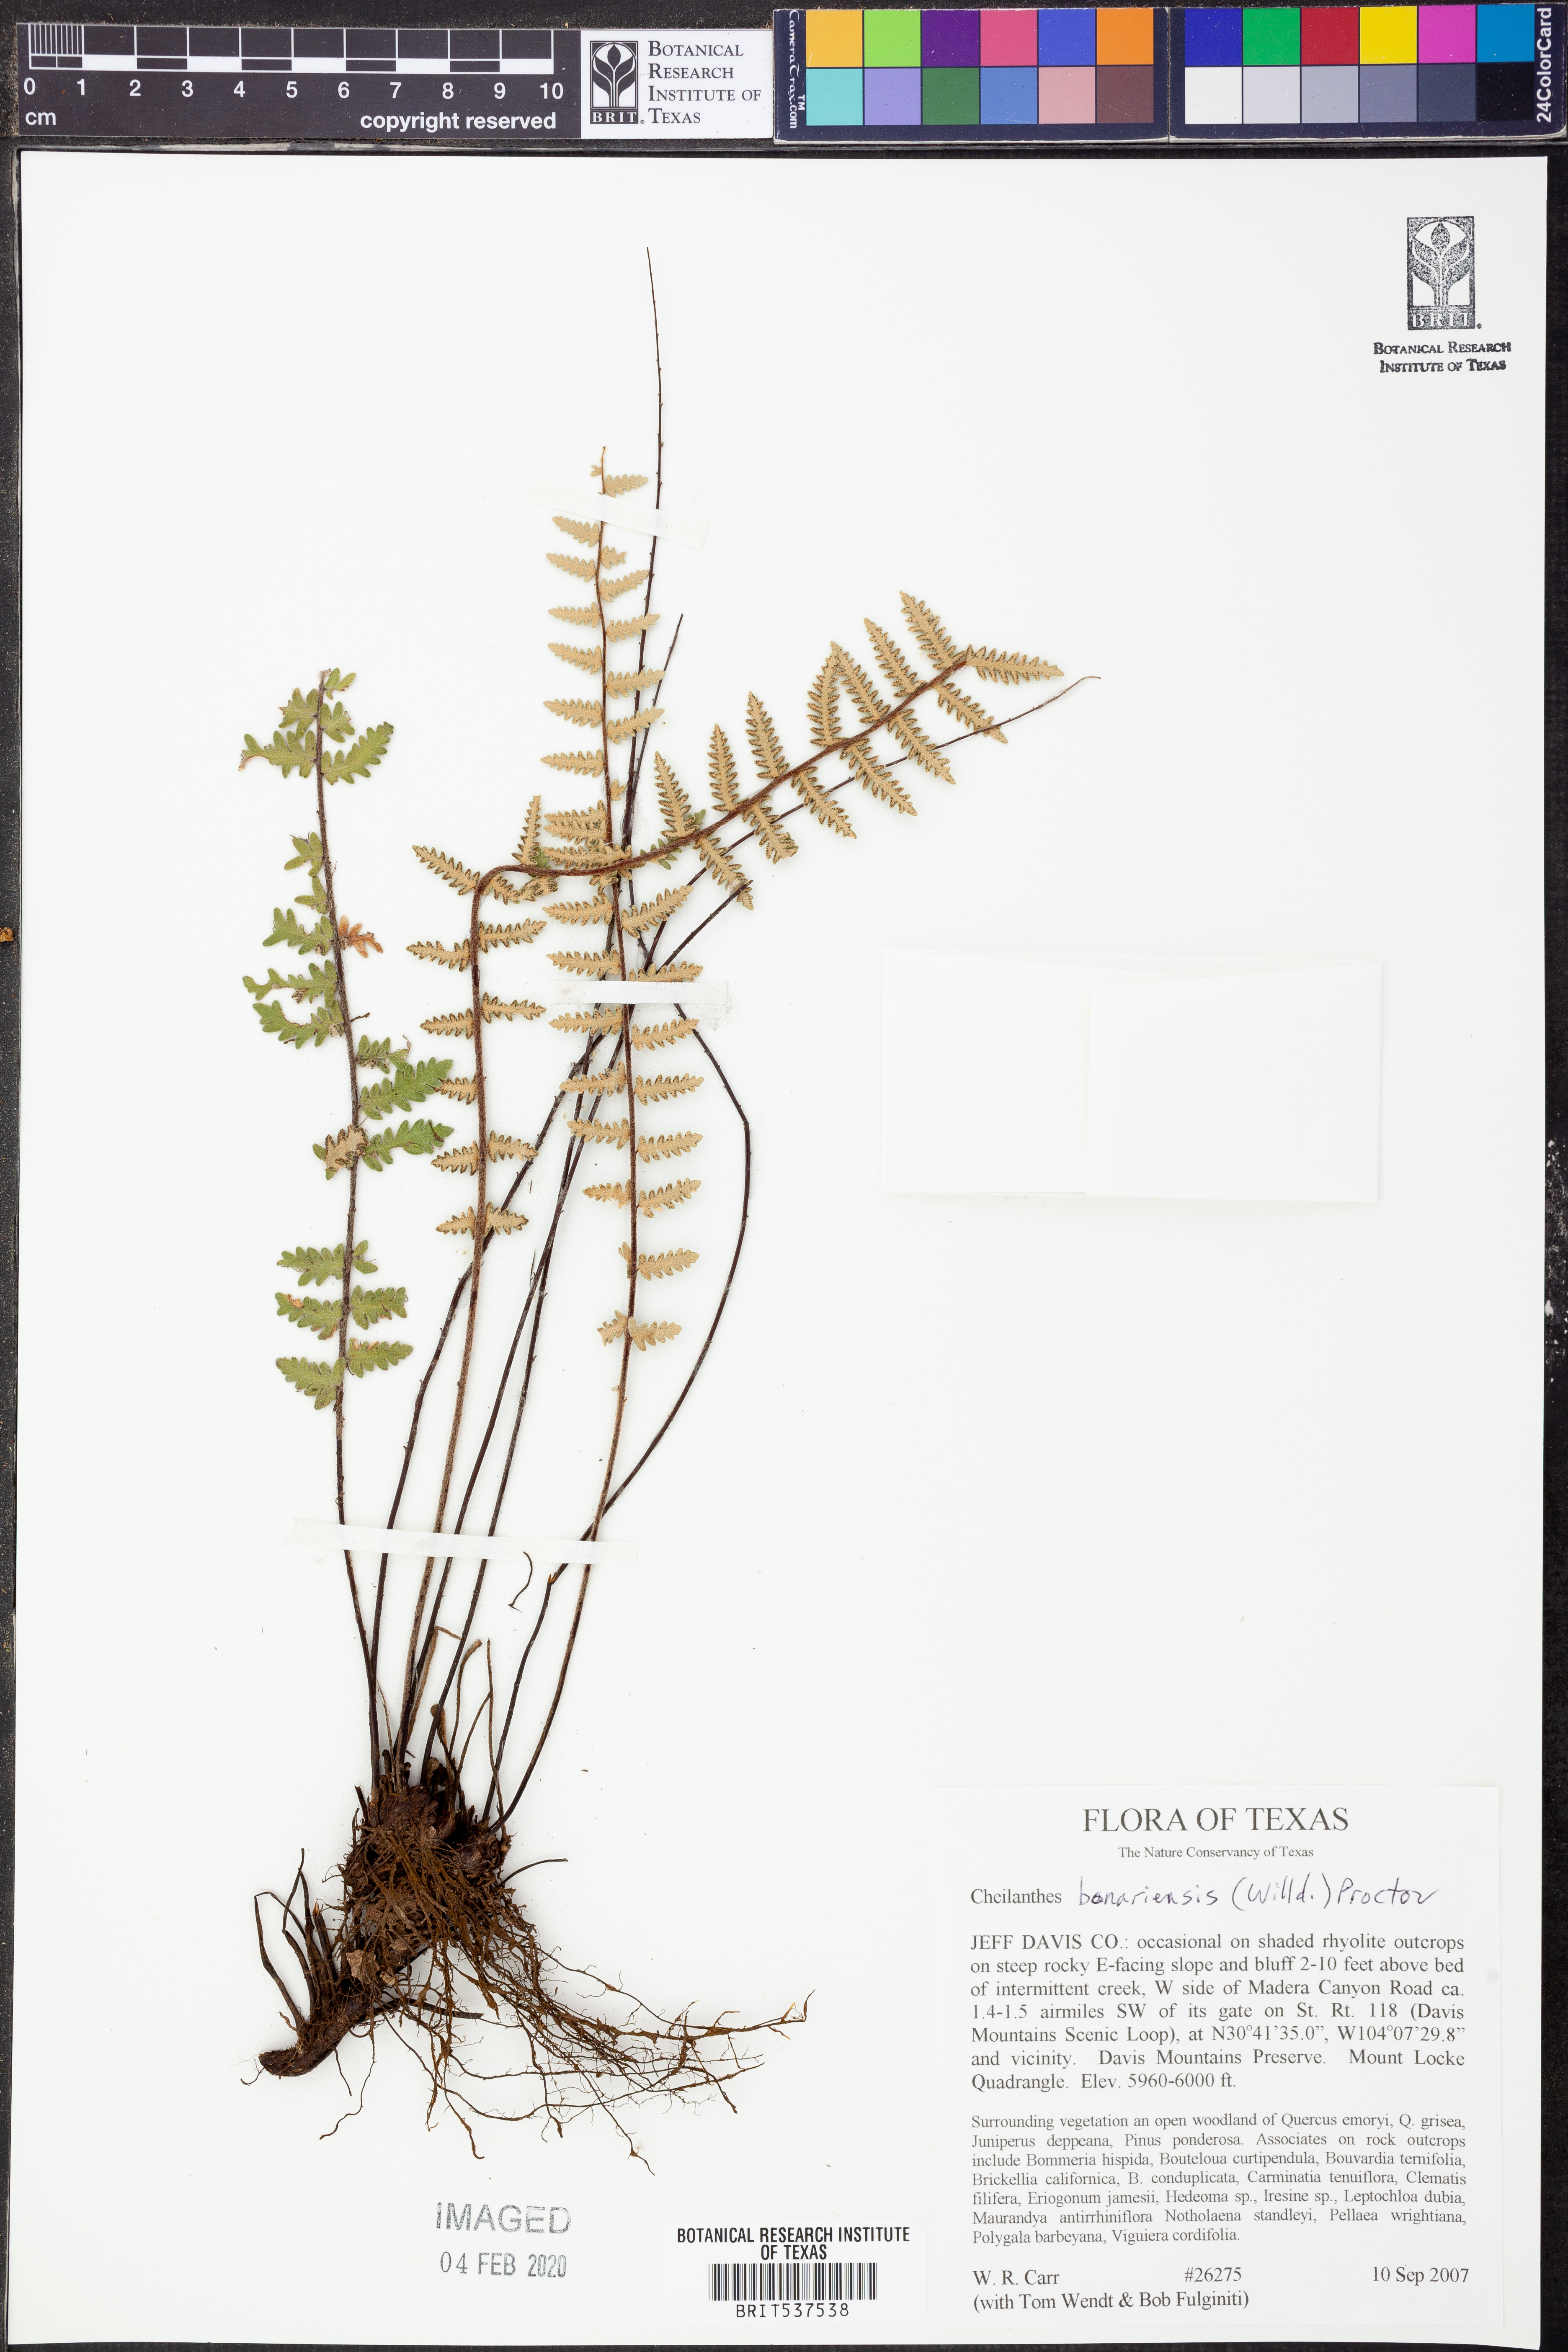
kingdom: Plantae
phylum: Tracheophyta
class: Polypodiopsida
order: Polypodiales
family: Pteridaceae
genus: Myriopteris
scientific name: Myriopteris aurea
